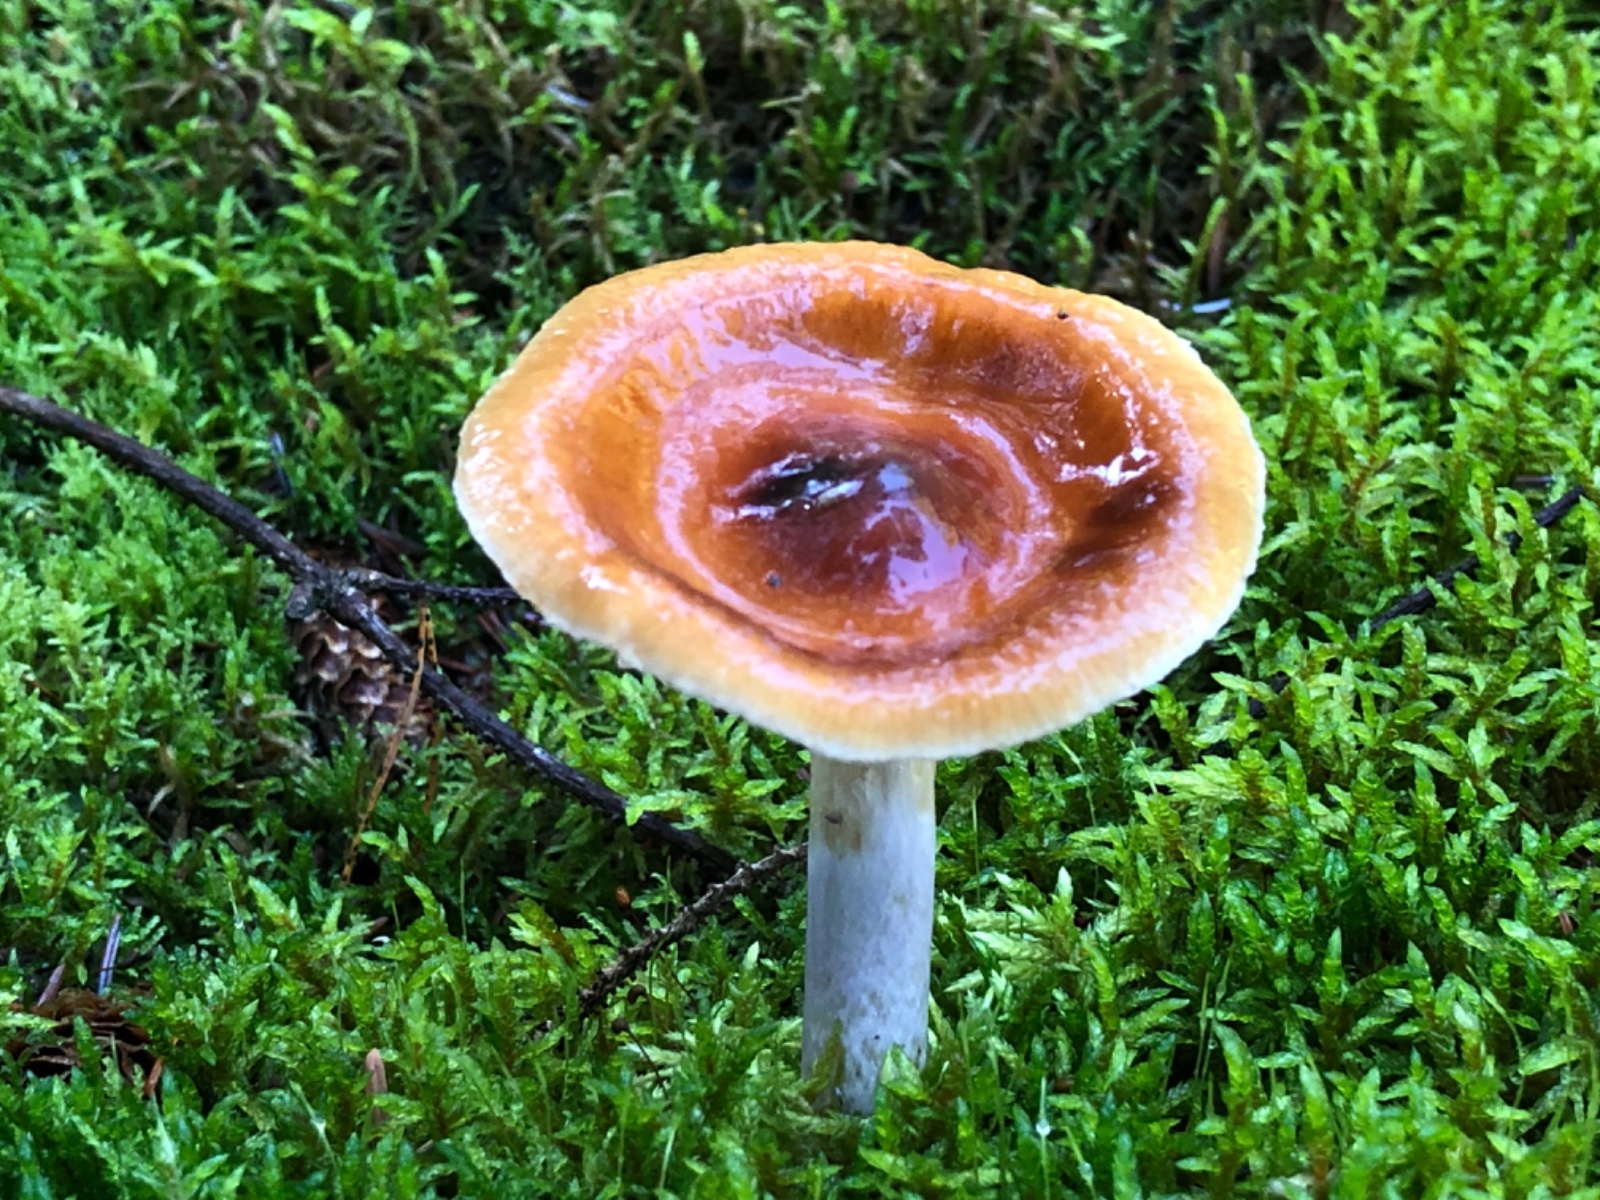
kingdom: Fungi
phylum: Basidiomycota
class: Agaricomycetes
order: Agaricales
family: Cortinariaceae
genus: Cortinarius
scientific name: Cortinarius collinitus
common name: spættet slørhat
